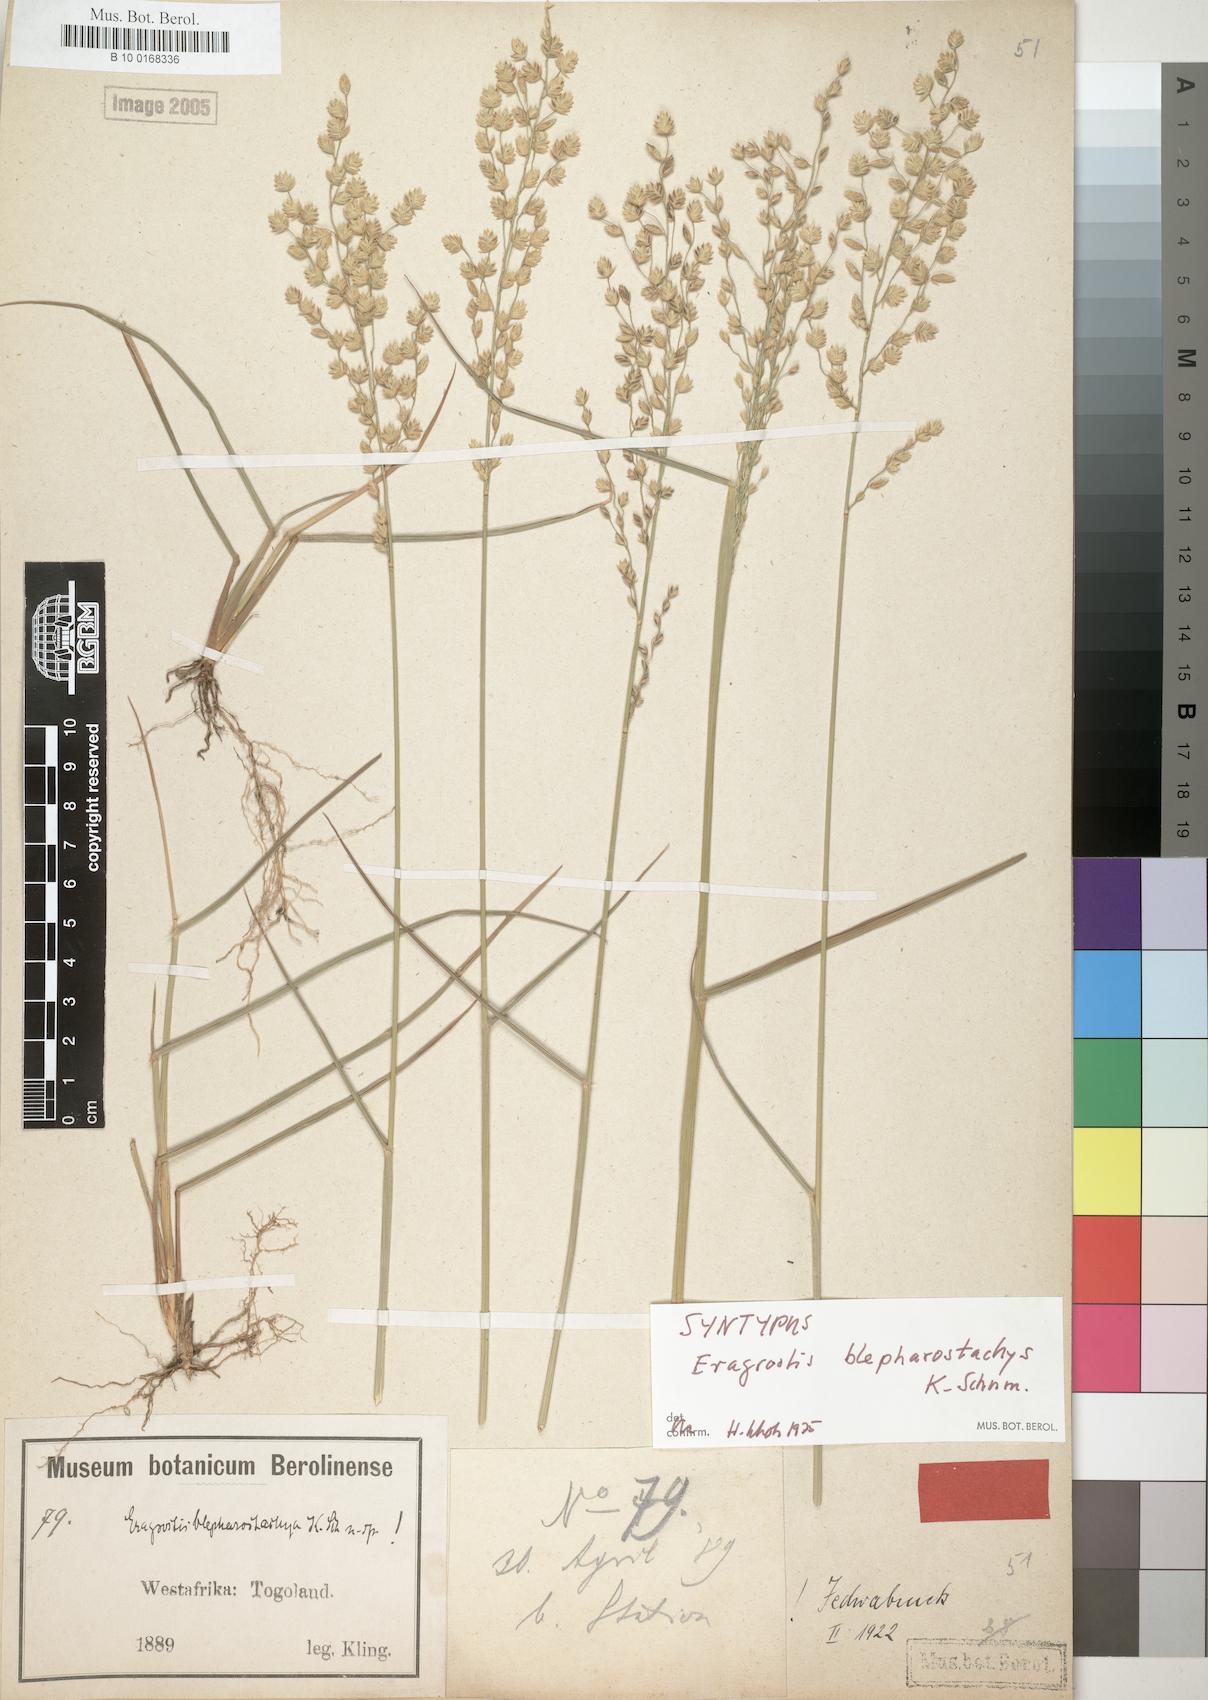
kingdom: Plantae
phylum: Tracheophyta
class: Liliopsida
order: Poales
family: Poaceae
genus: Eragrostis
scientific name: Eragrostis blepharostachya
